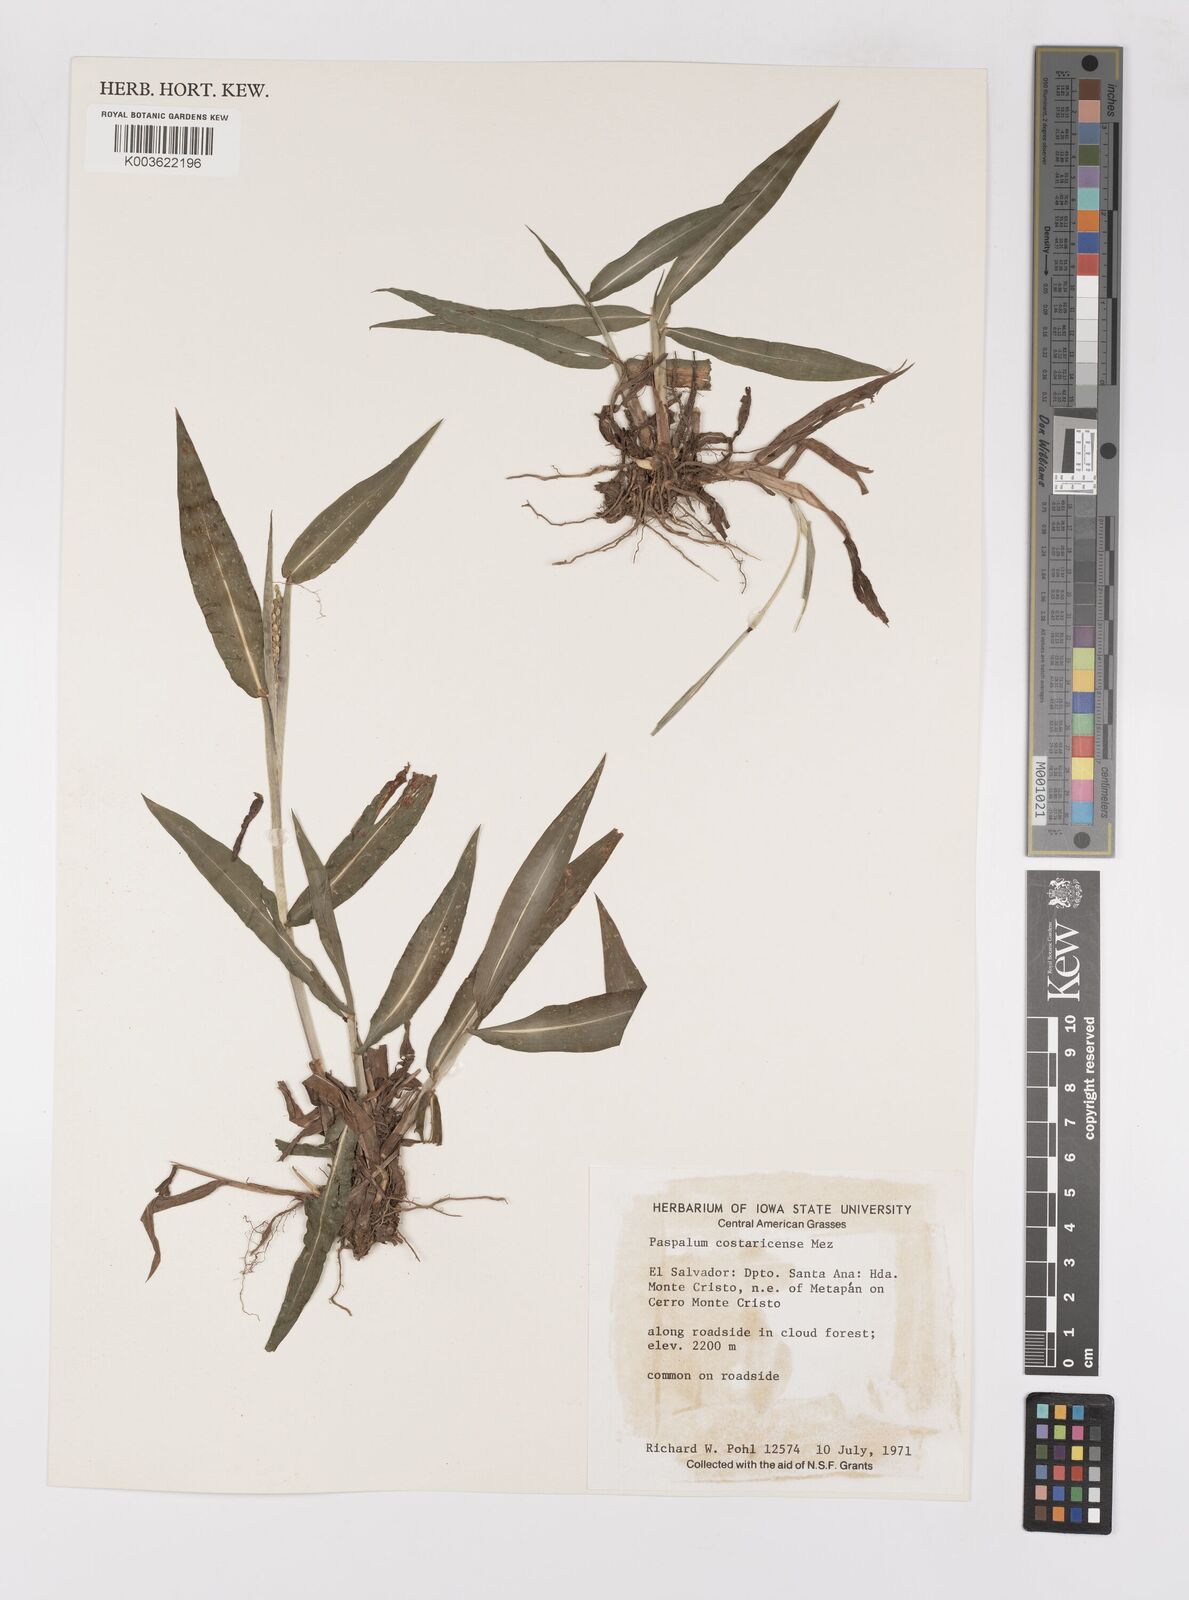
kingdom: Plantae
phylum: Tracheophyta
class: Liliopsida
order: Poales
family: Poaceae
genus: Paspalum
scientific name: Paspalum costaricense
